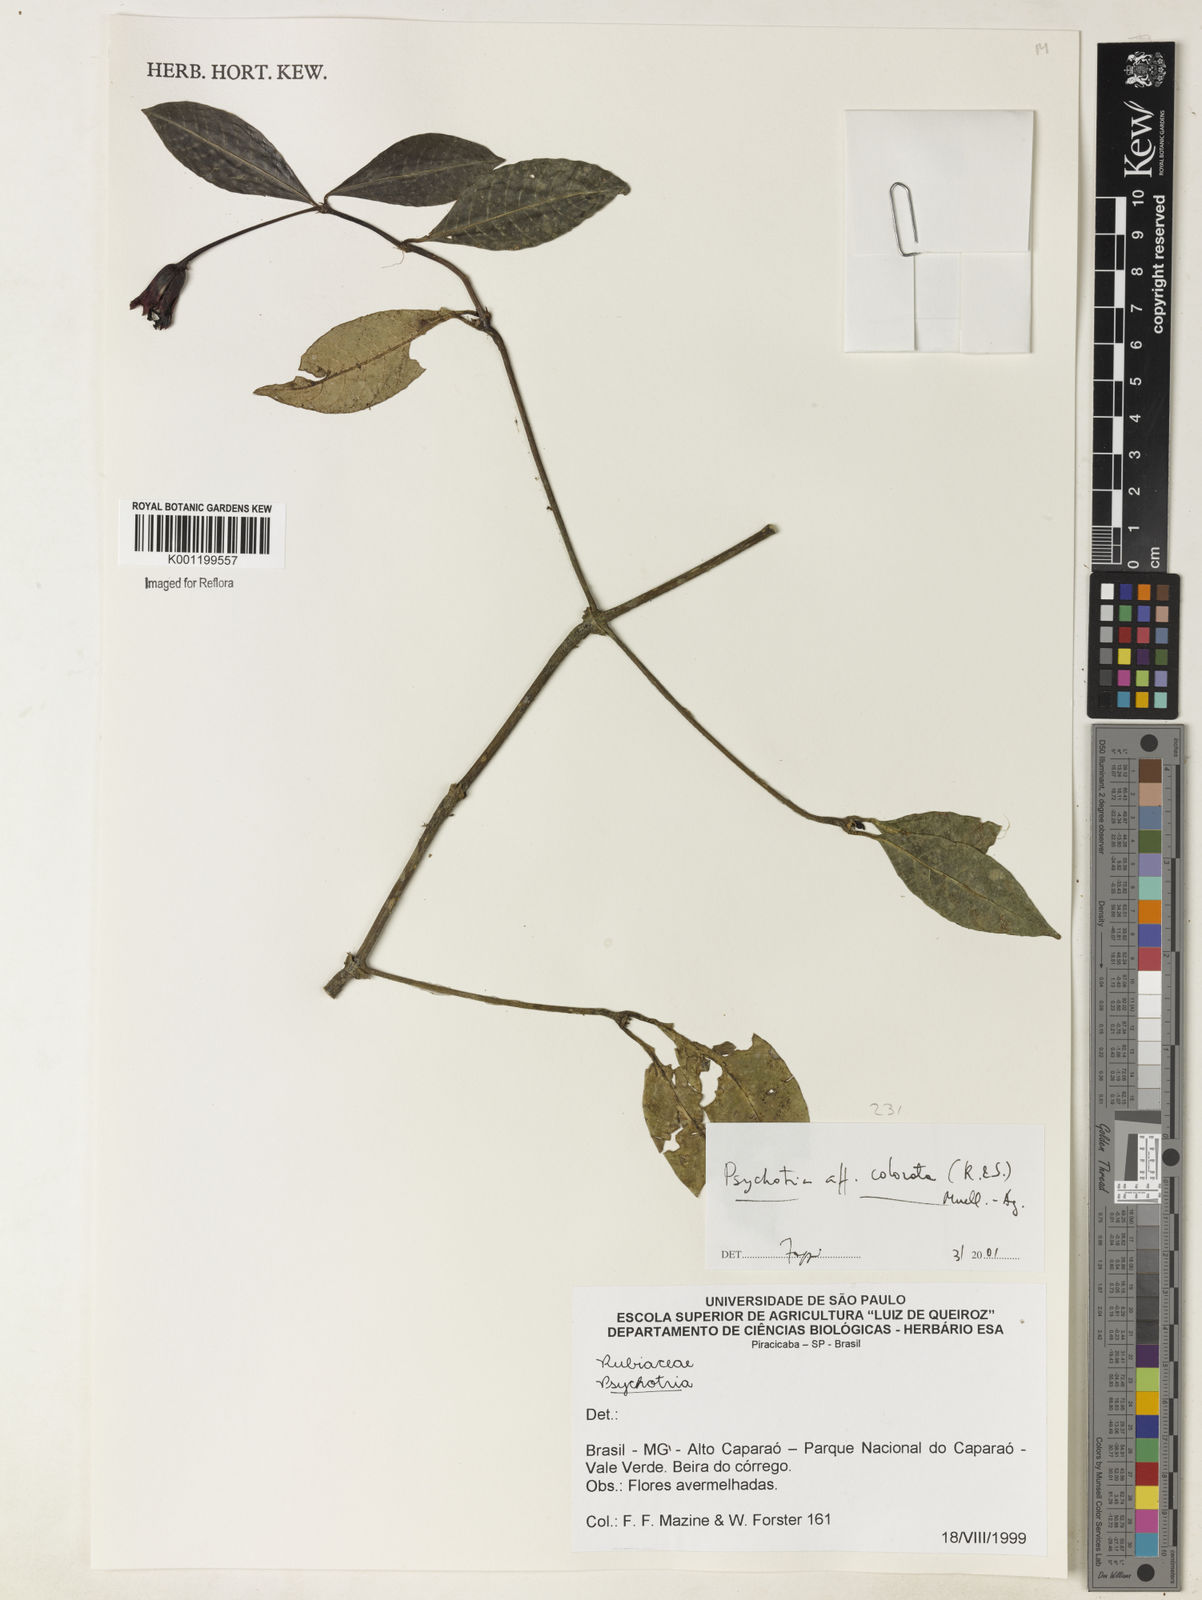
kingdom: Plantae
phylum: Tracheophyta
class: Magnoliopsida
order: Gentianales
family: Rubiaceae
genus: Psychotria
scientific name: Psychotria
